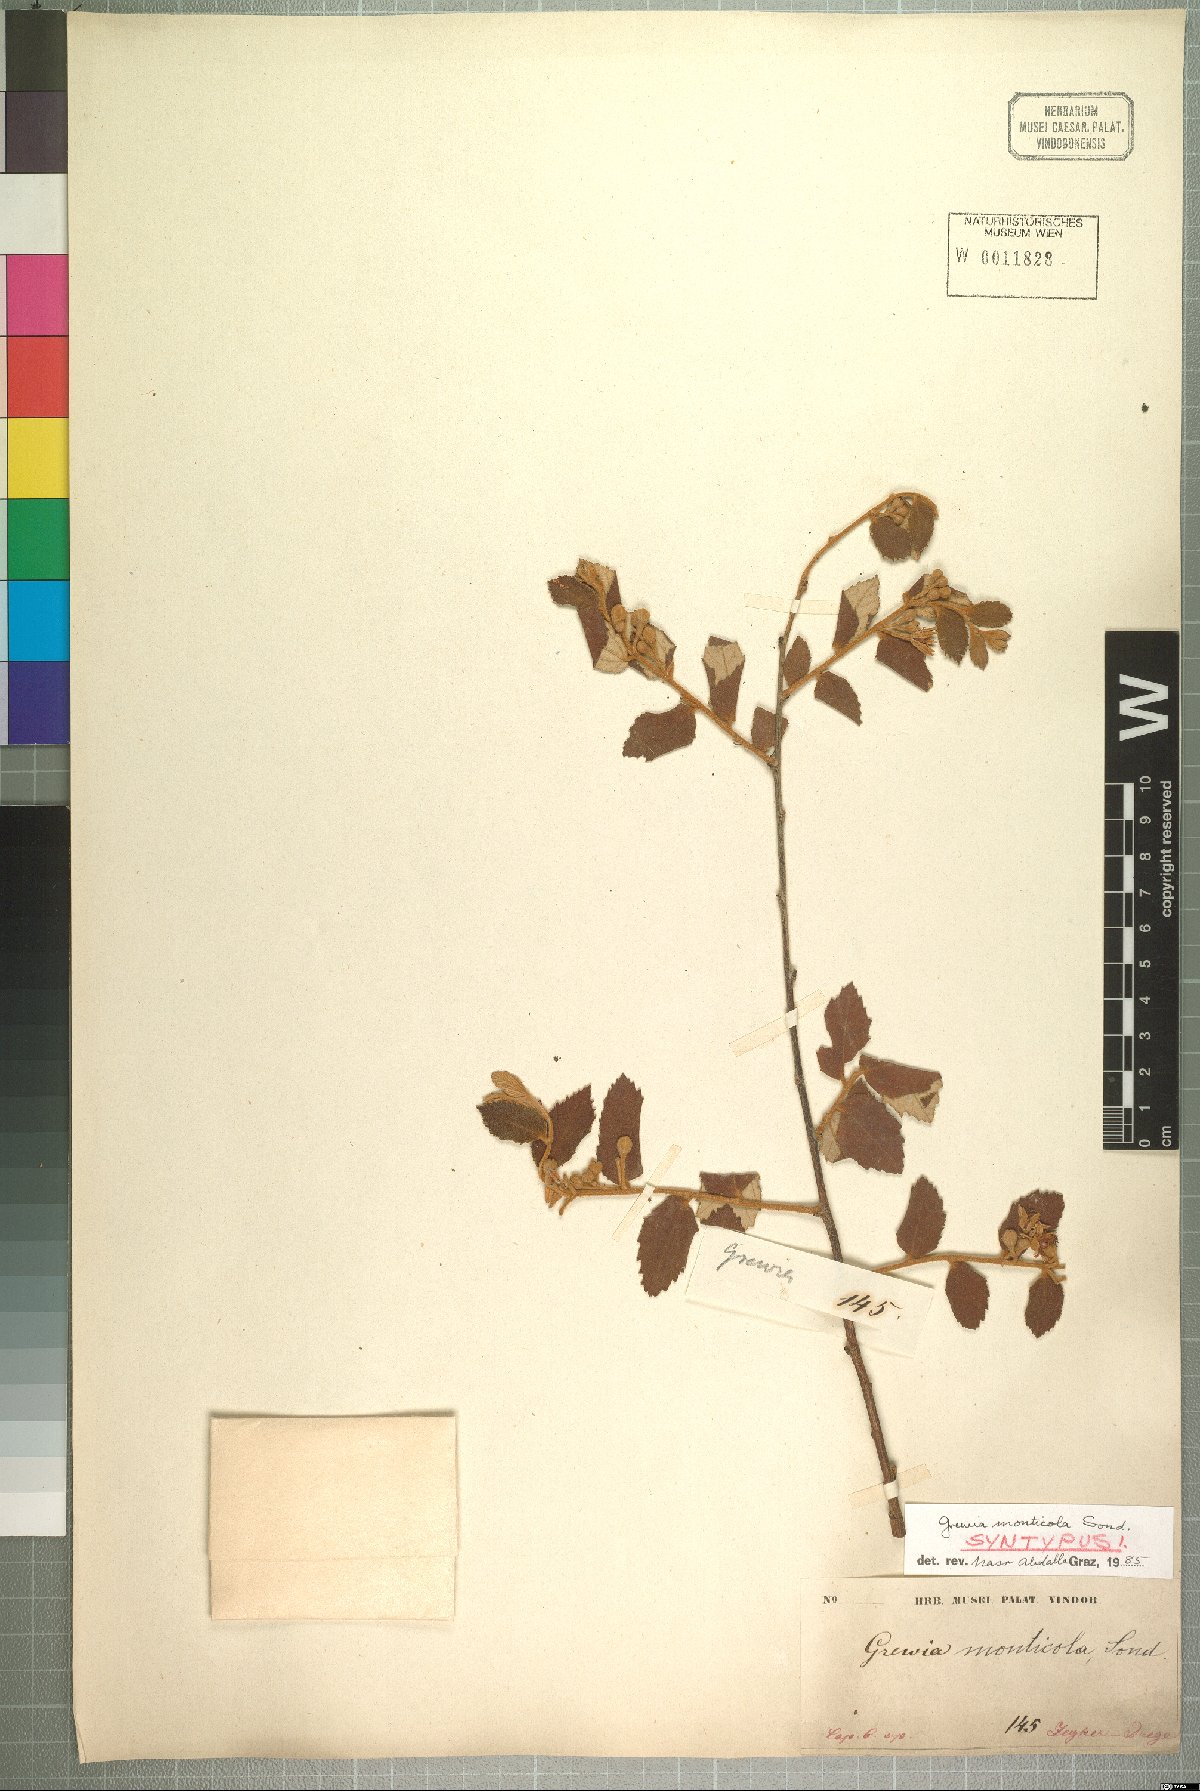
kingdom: Plantae
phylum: Tracheophyta
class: Magnoliopsida
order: Malvales
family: Malvaceae
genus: Grewia
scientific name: Grewia monticola
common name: Grey raisin
